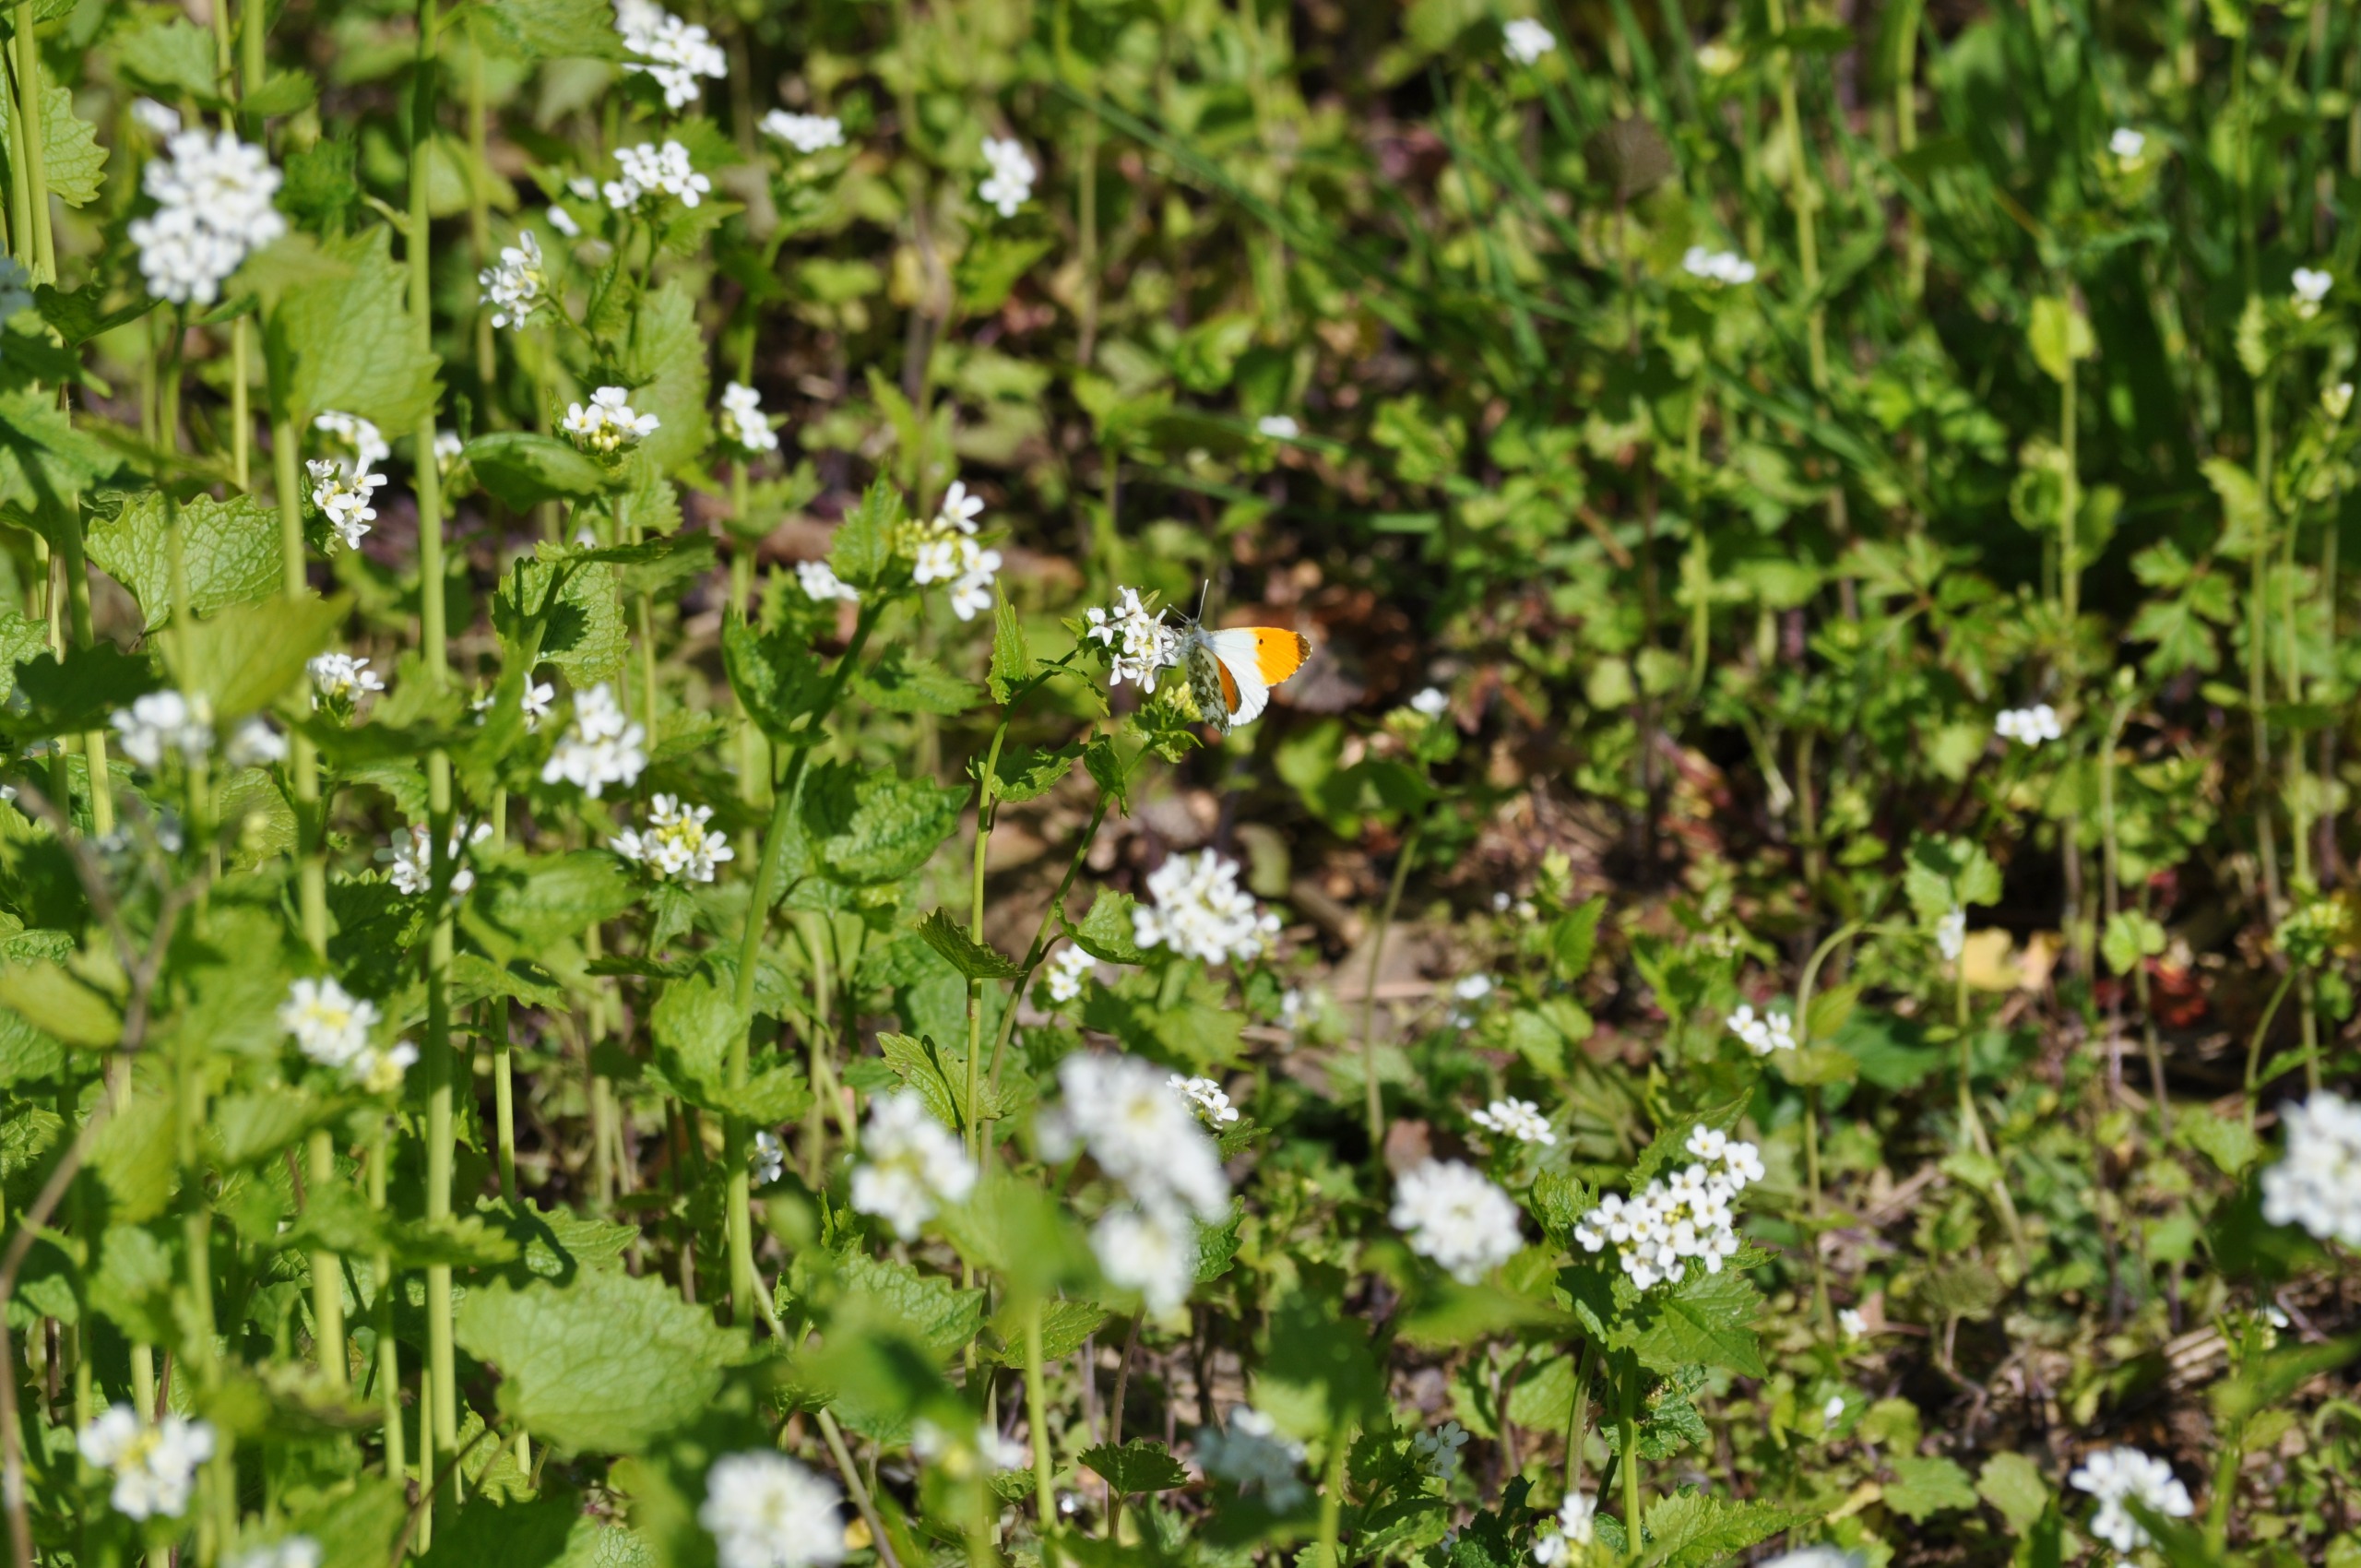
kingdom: Animalia
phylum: Arthropoda
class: Insecta
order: Lepidoptera
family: Pieridae
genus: Anthocharis
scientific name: Anthocharis cardamines
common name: Aurora
